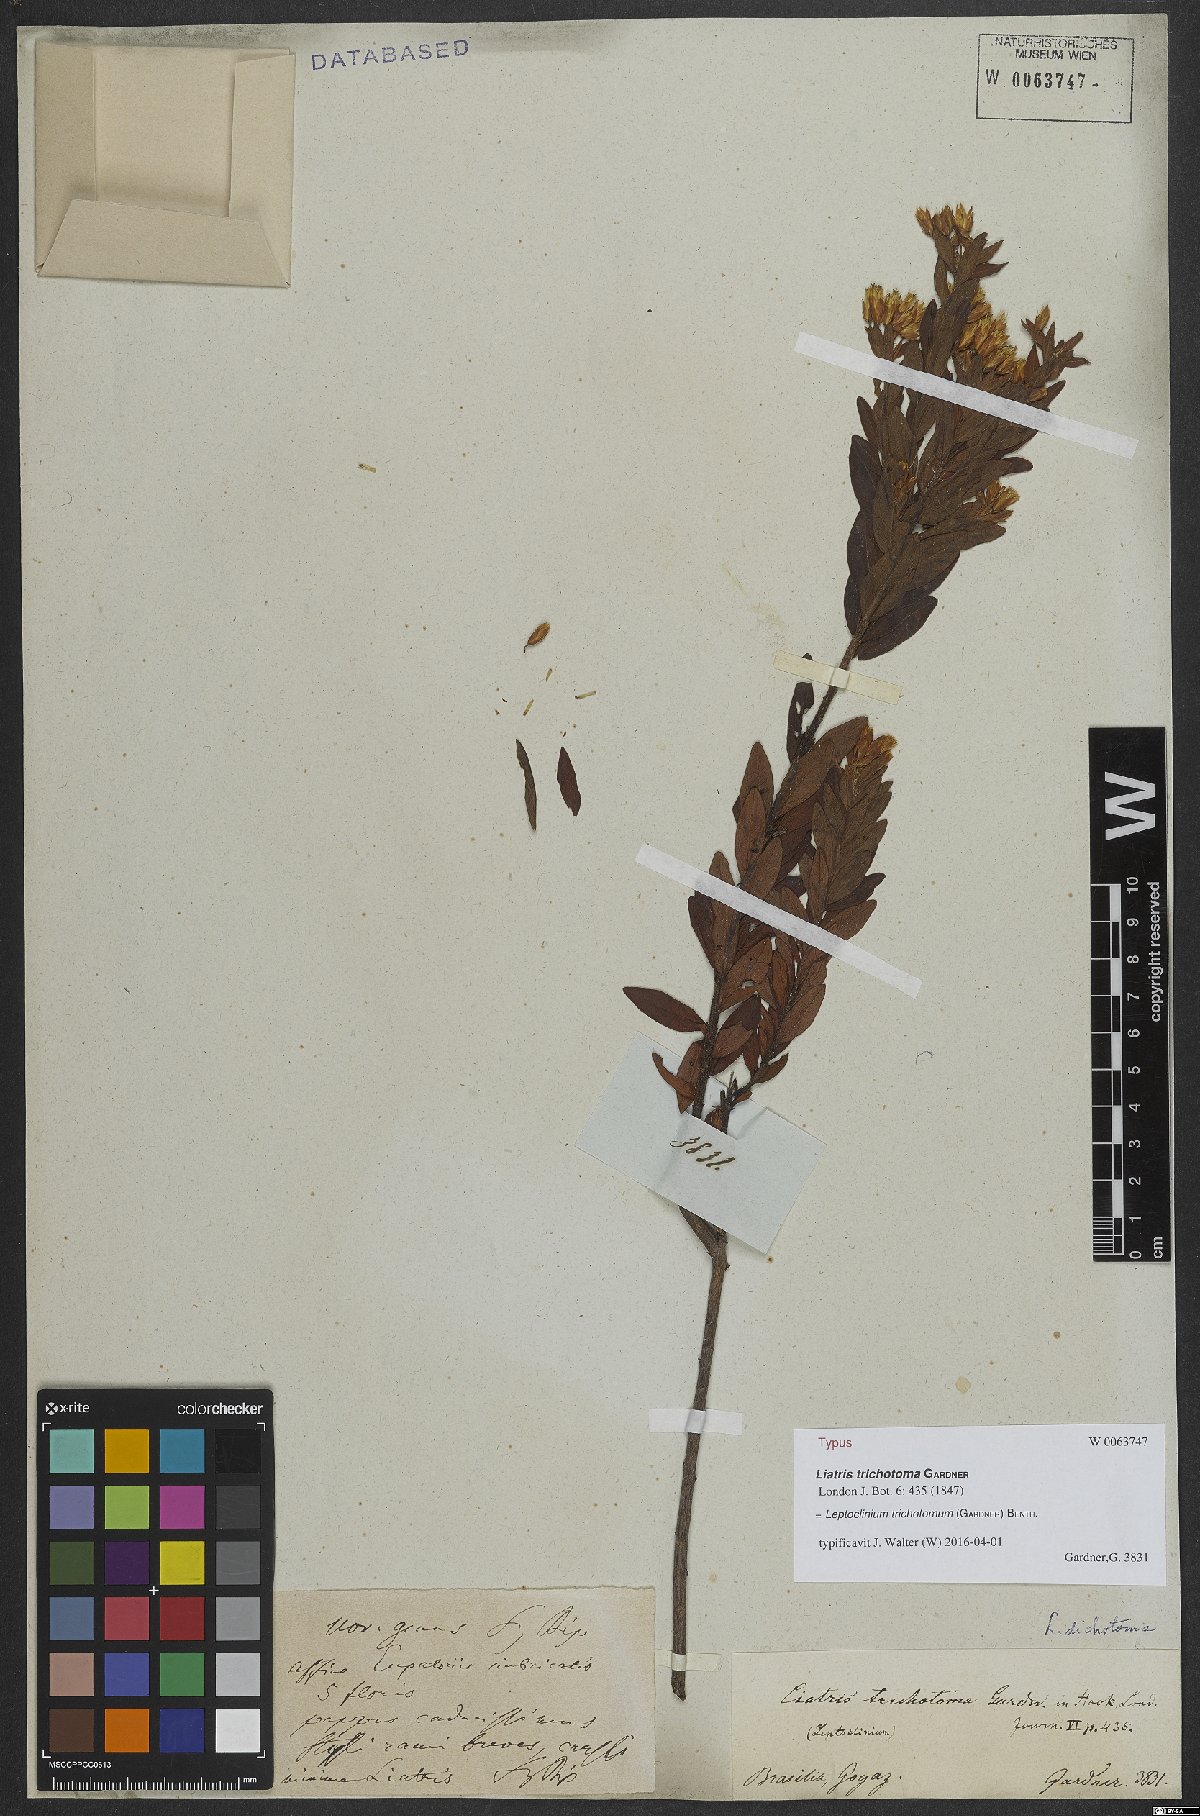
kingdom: Plantae
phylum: Tracheophyta
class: Magnoliopsida
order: Asterales
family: Asteraceae
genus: Leptoclinium
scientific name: Leptoclinium trichotomum
